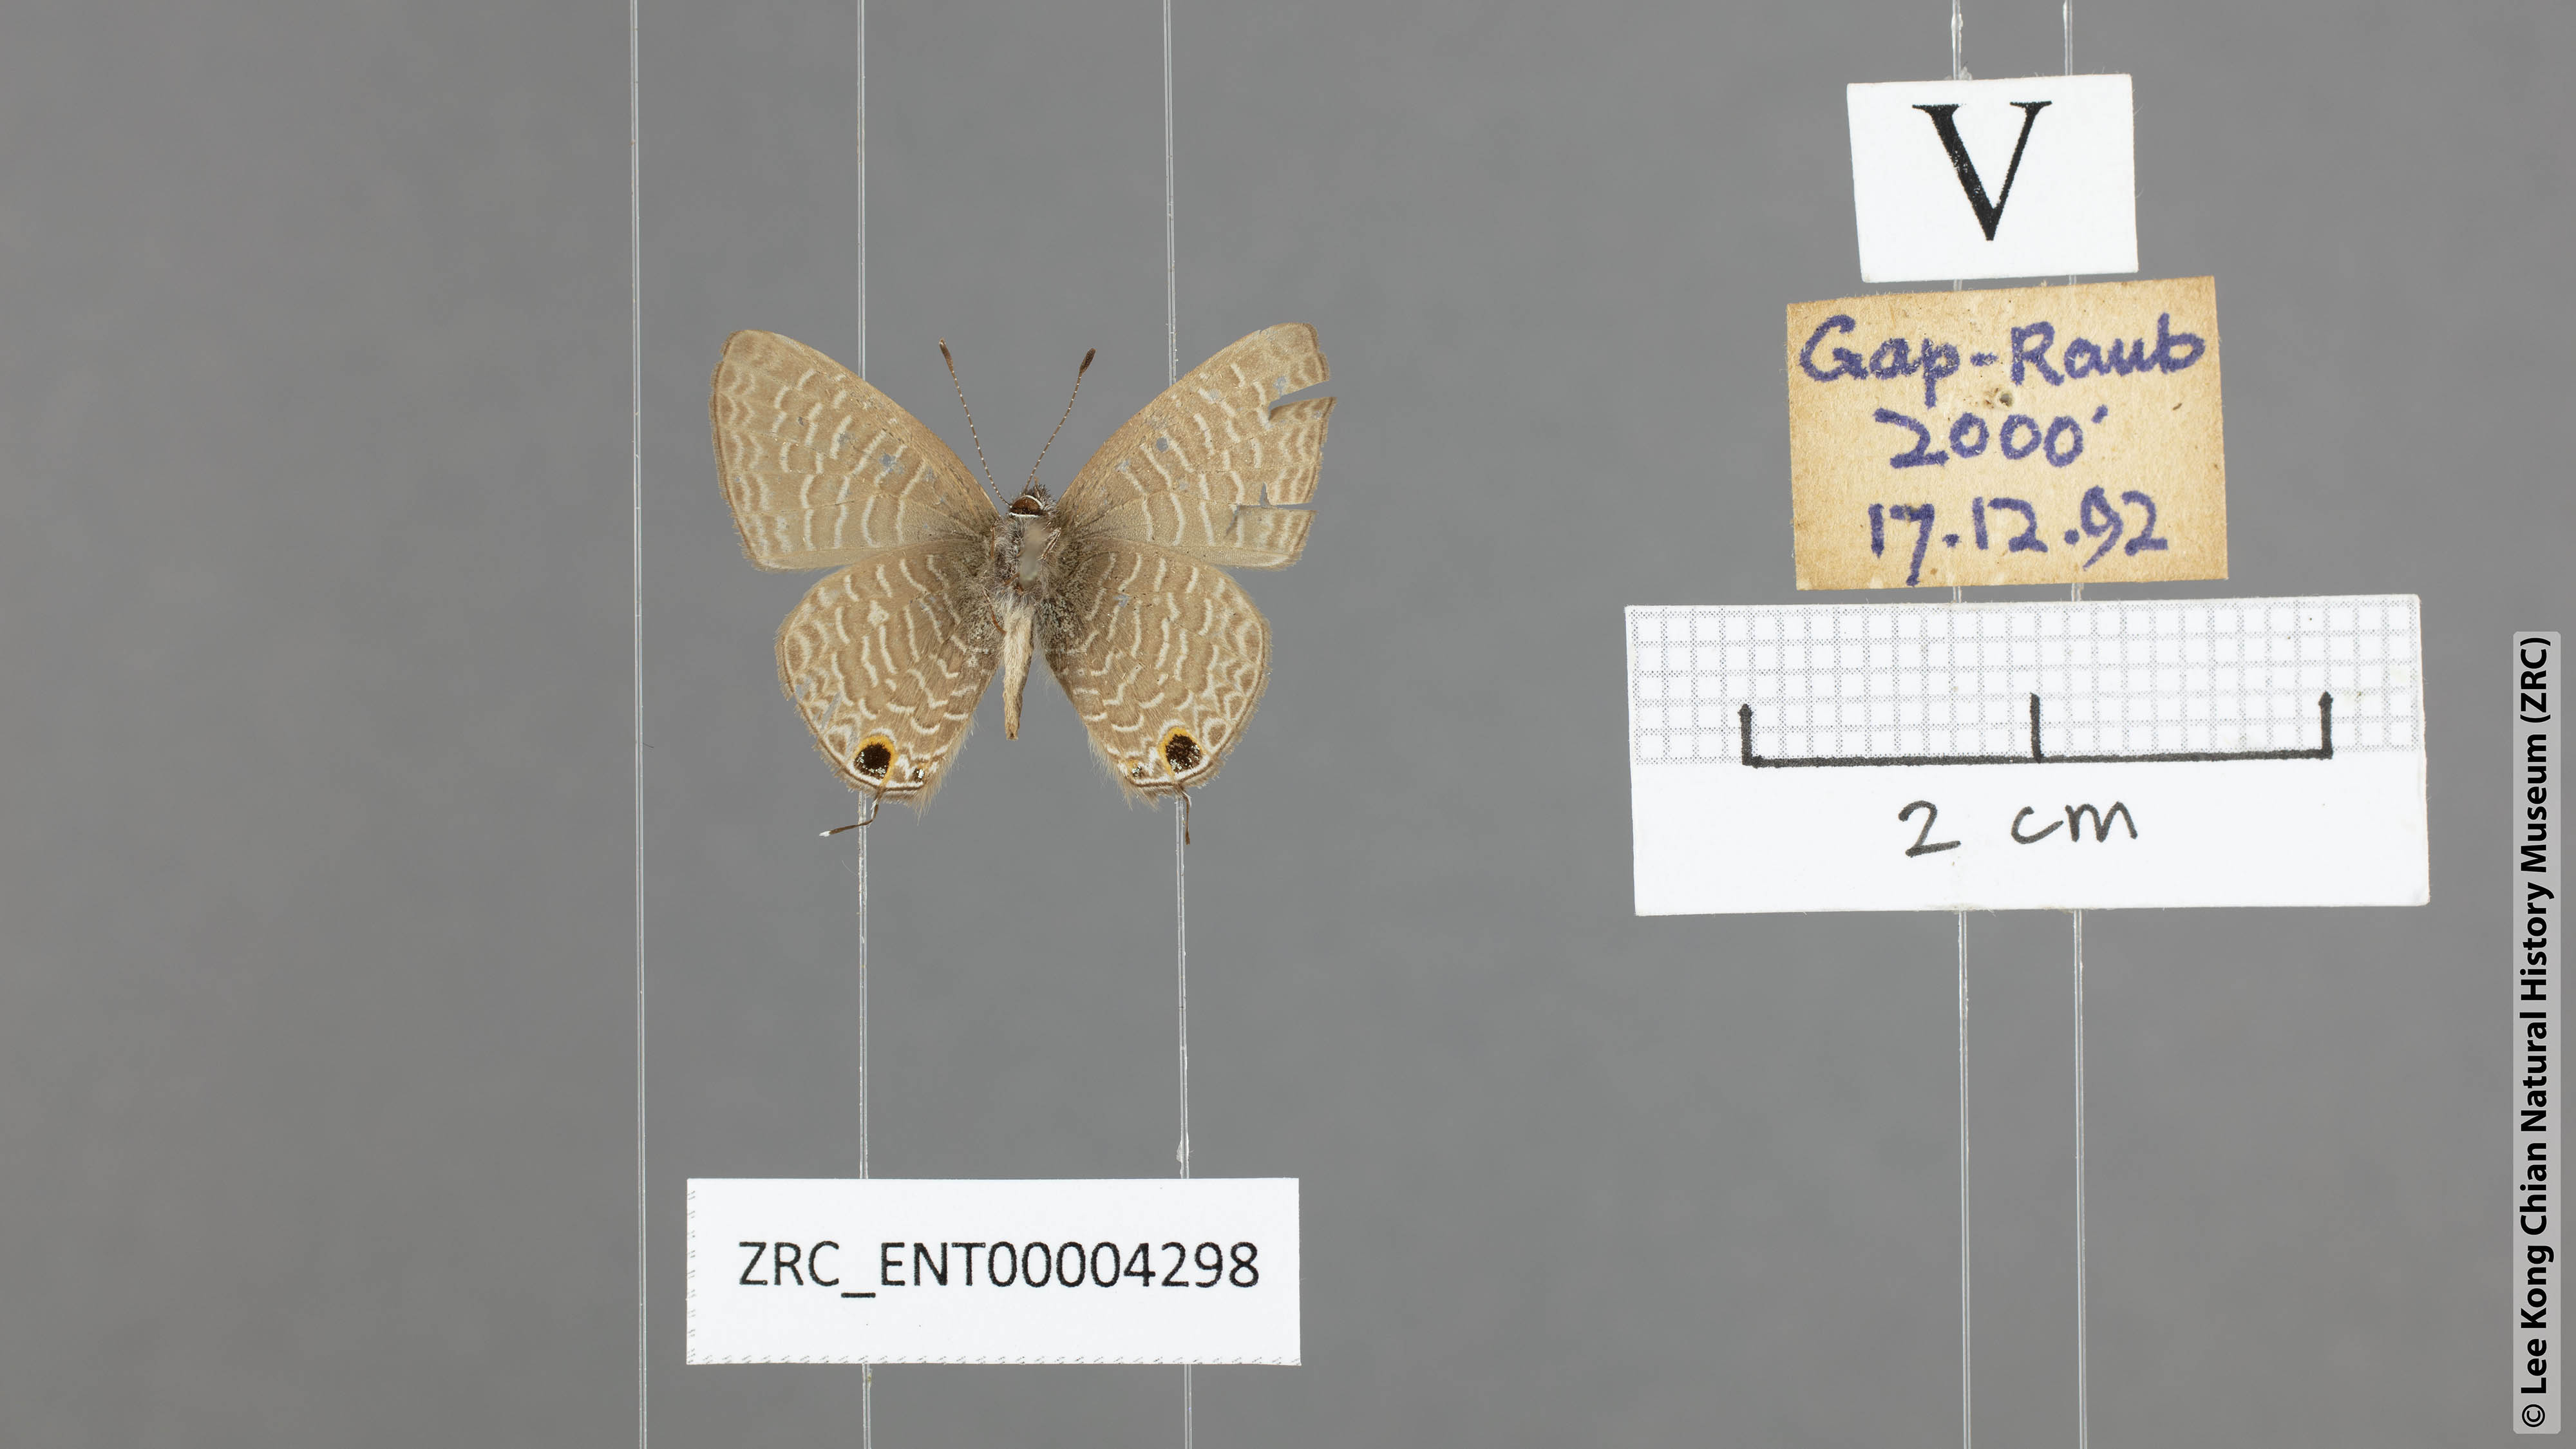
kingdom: Animalia
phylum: Arthropoda
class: Insecta
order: Lepidoptera
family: Lycaenidae
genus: Ionolyce
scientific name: Ionolyce helicon
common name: Pointed line blue
